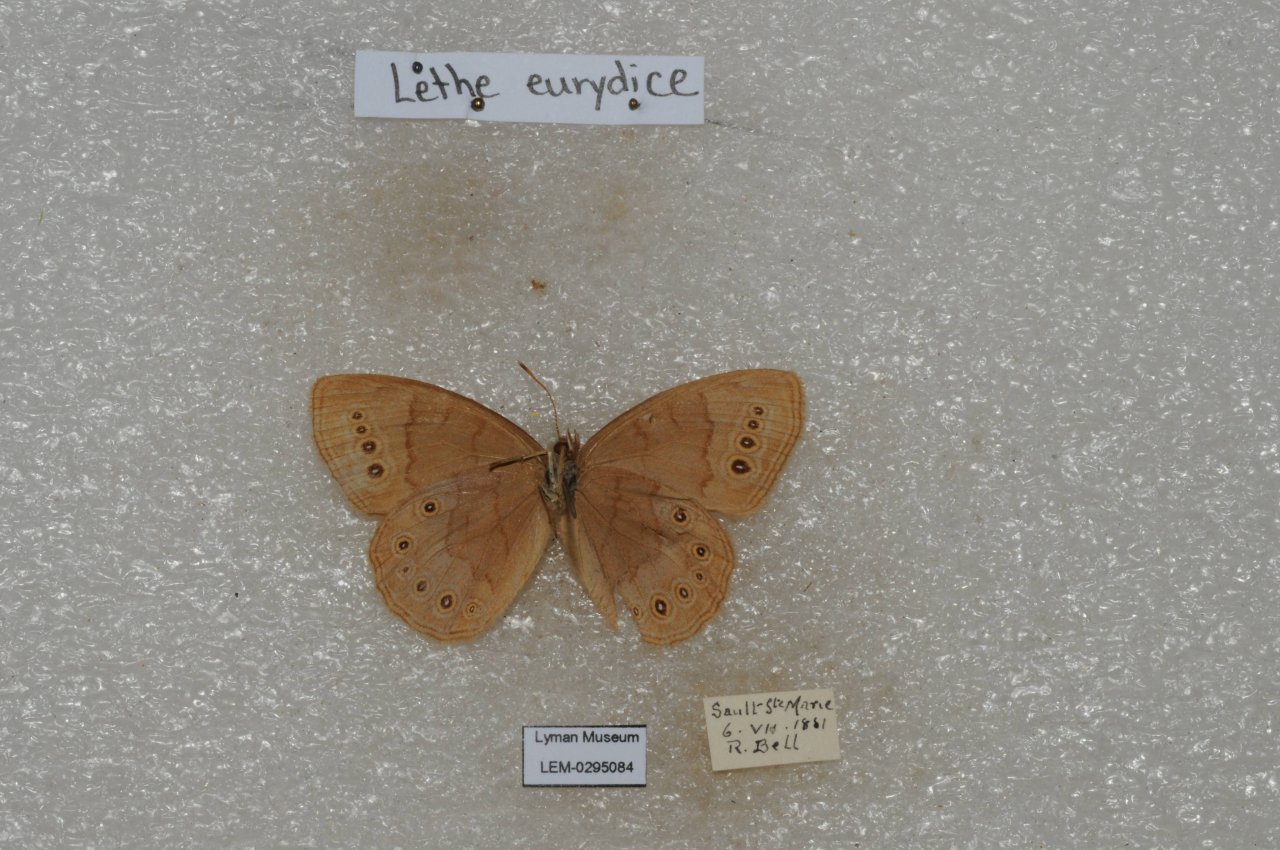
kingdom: Animalia
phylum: Arthropoda
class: Insecta
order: Lepidoptera
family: Nymphalidae
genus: Lethe
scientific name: Lethe eurydice
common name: Eyed Brown
